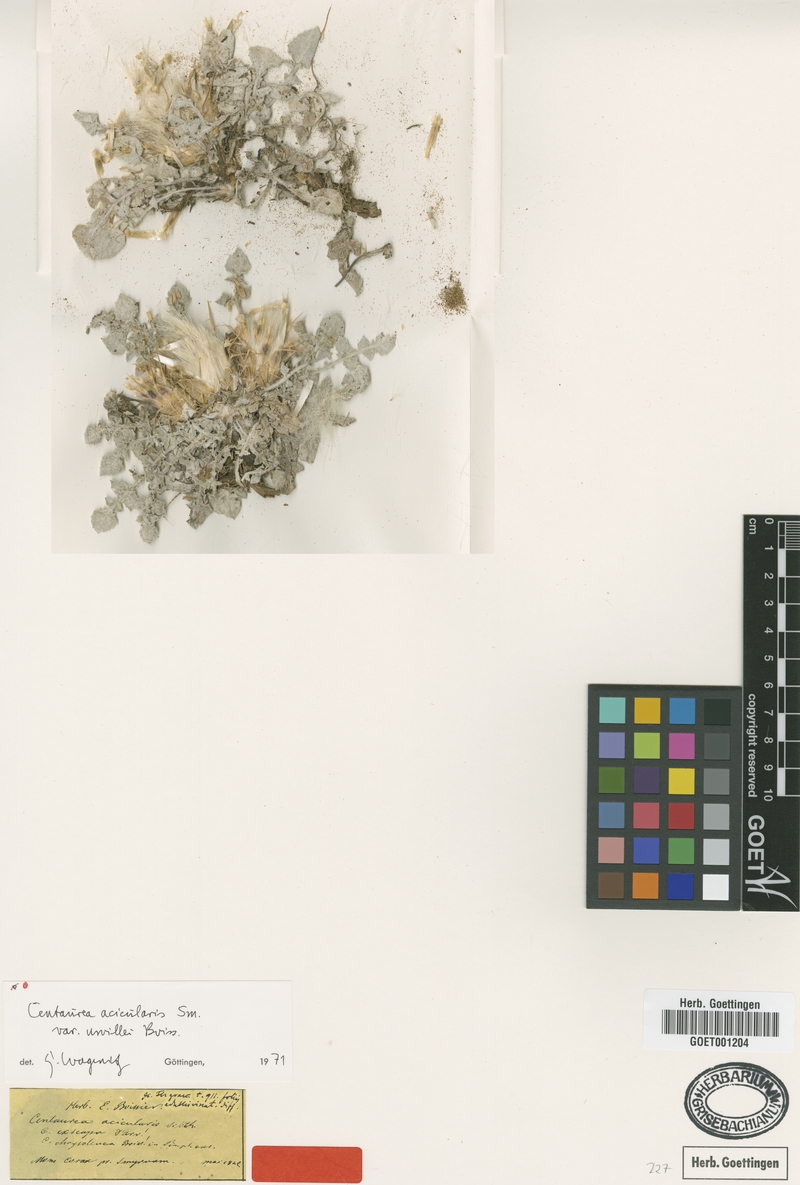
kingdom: Plantae
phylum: Tracheophyta
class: Magnoliopsida
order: Asterales
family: Asteraceae
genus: Centaurea
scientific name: Centaurea acicularis
